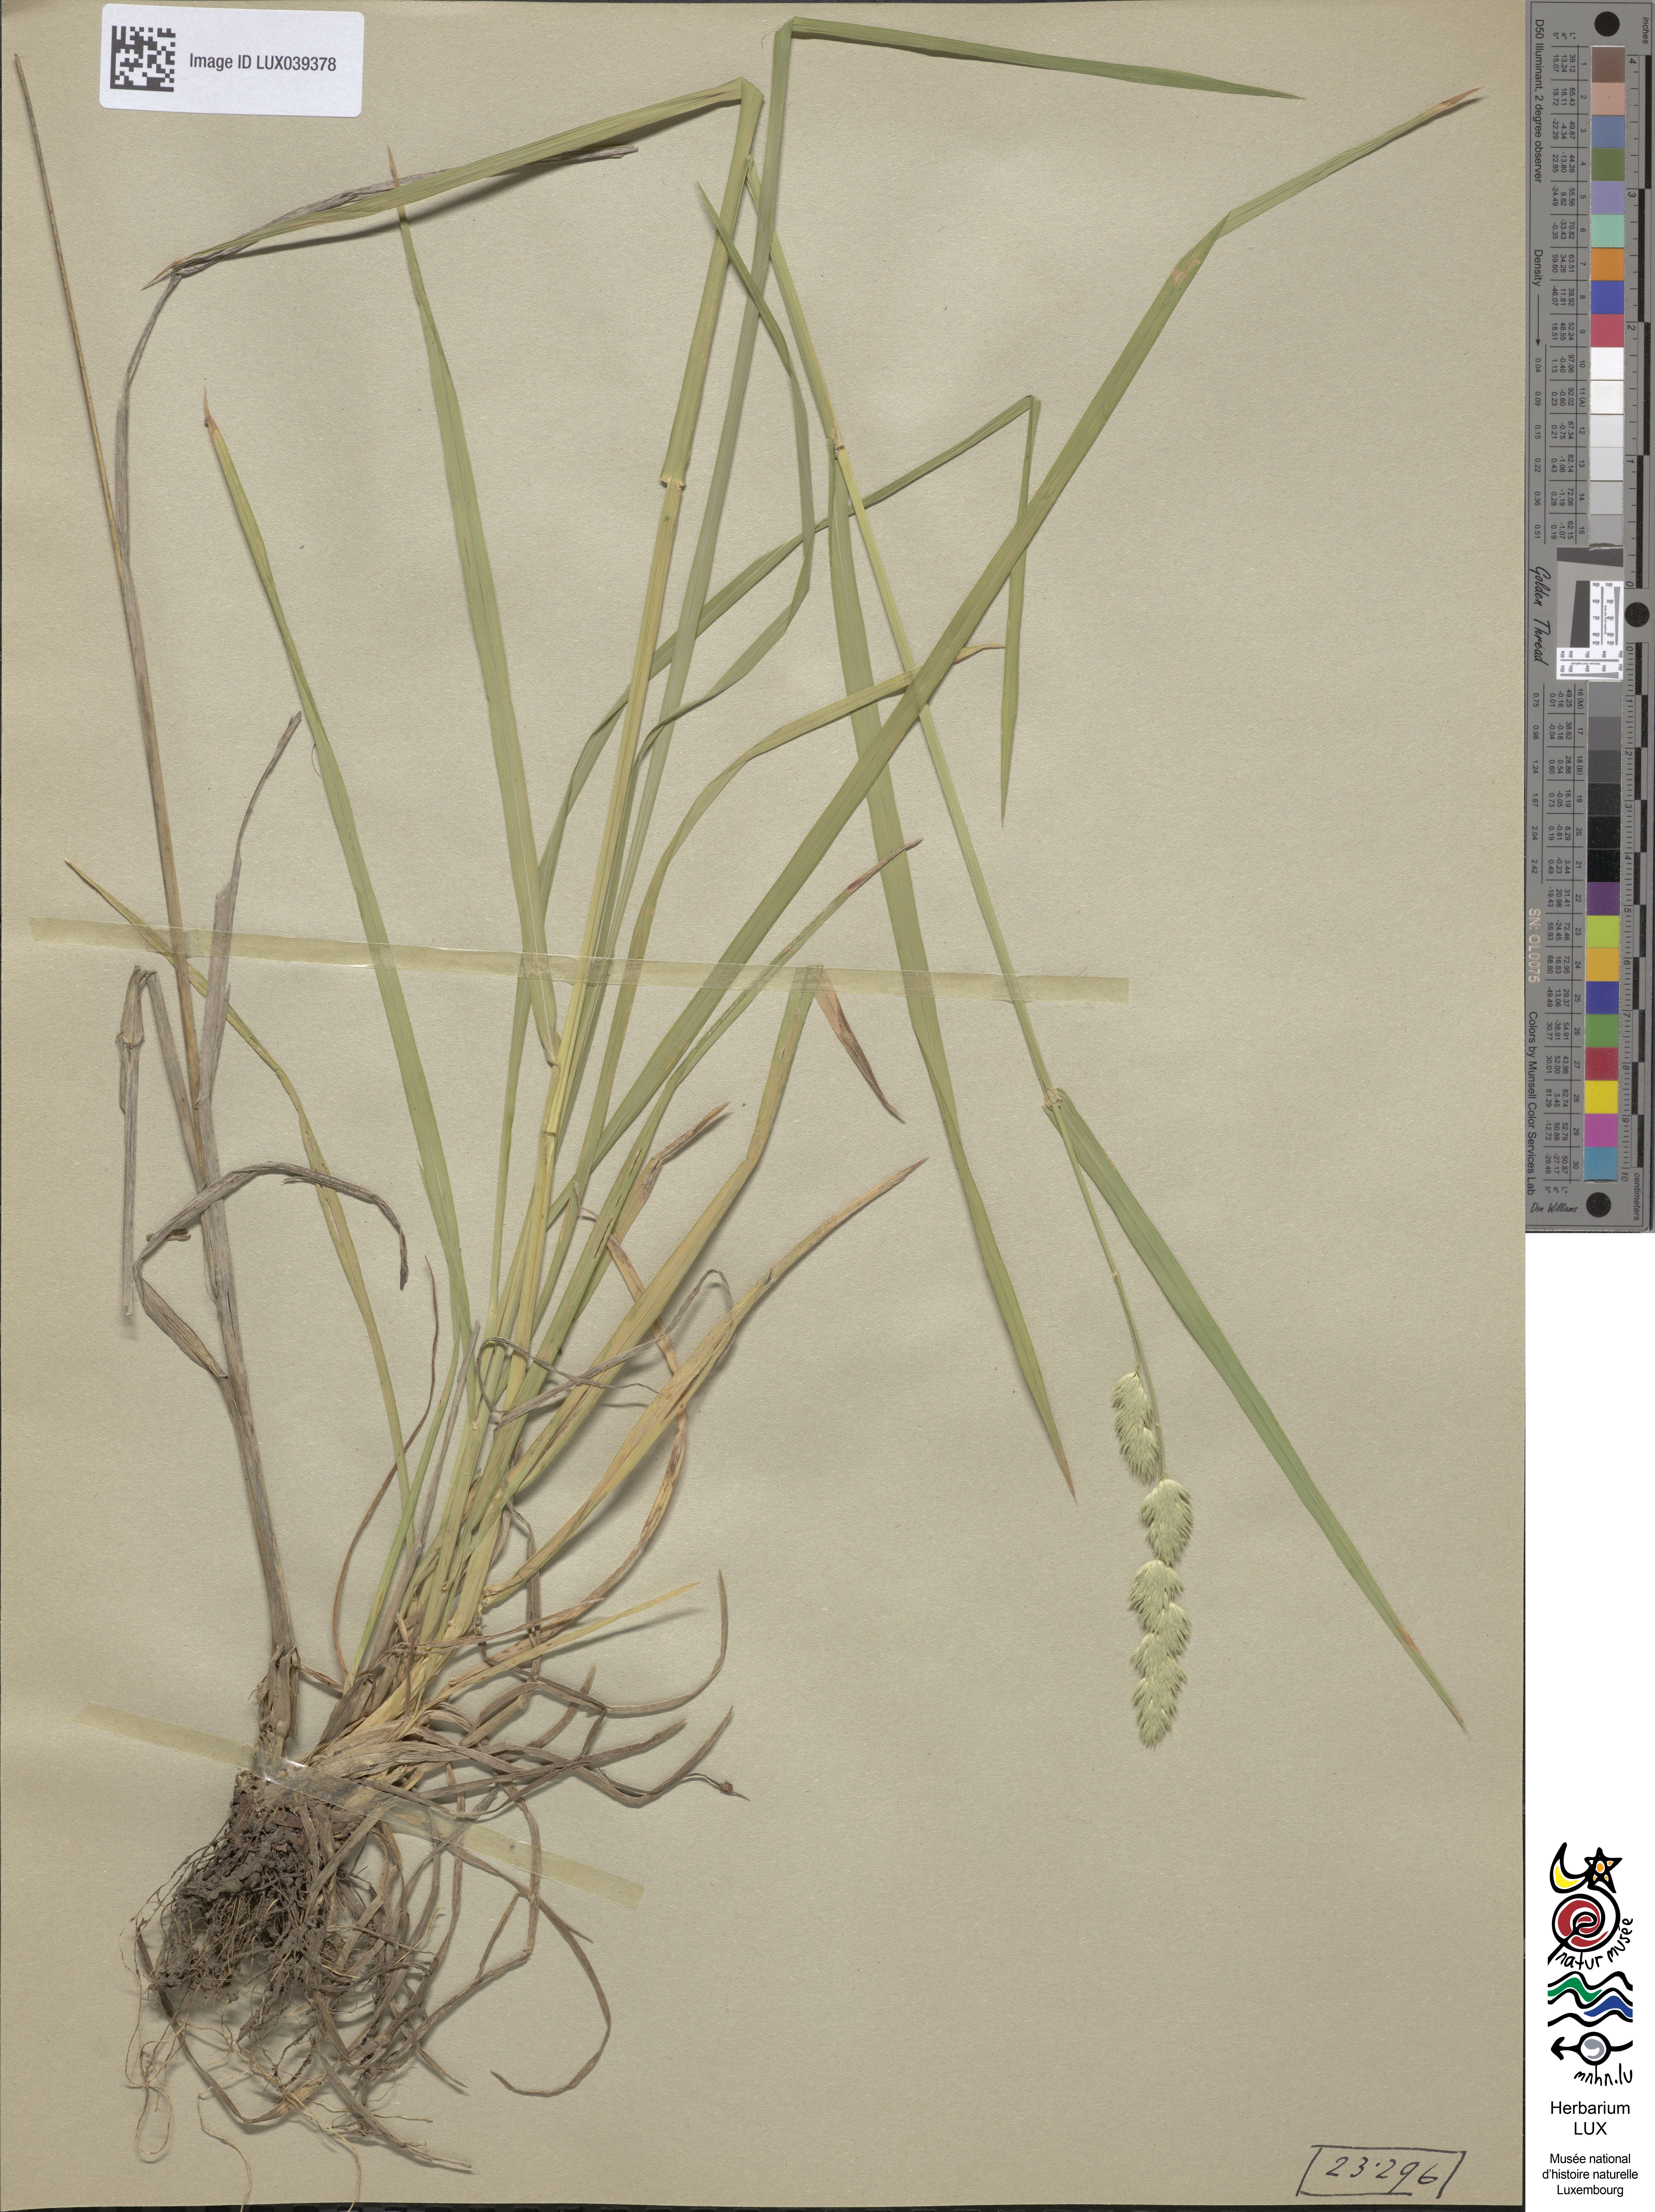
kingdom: Plantae
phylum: Tracheophyta
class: Liliopsida
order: Poales
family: Poaceae
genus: Dactylis
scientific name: Dactylis glomerata
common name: Orchardgrass
